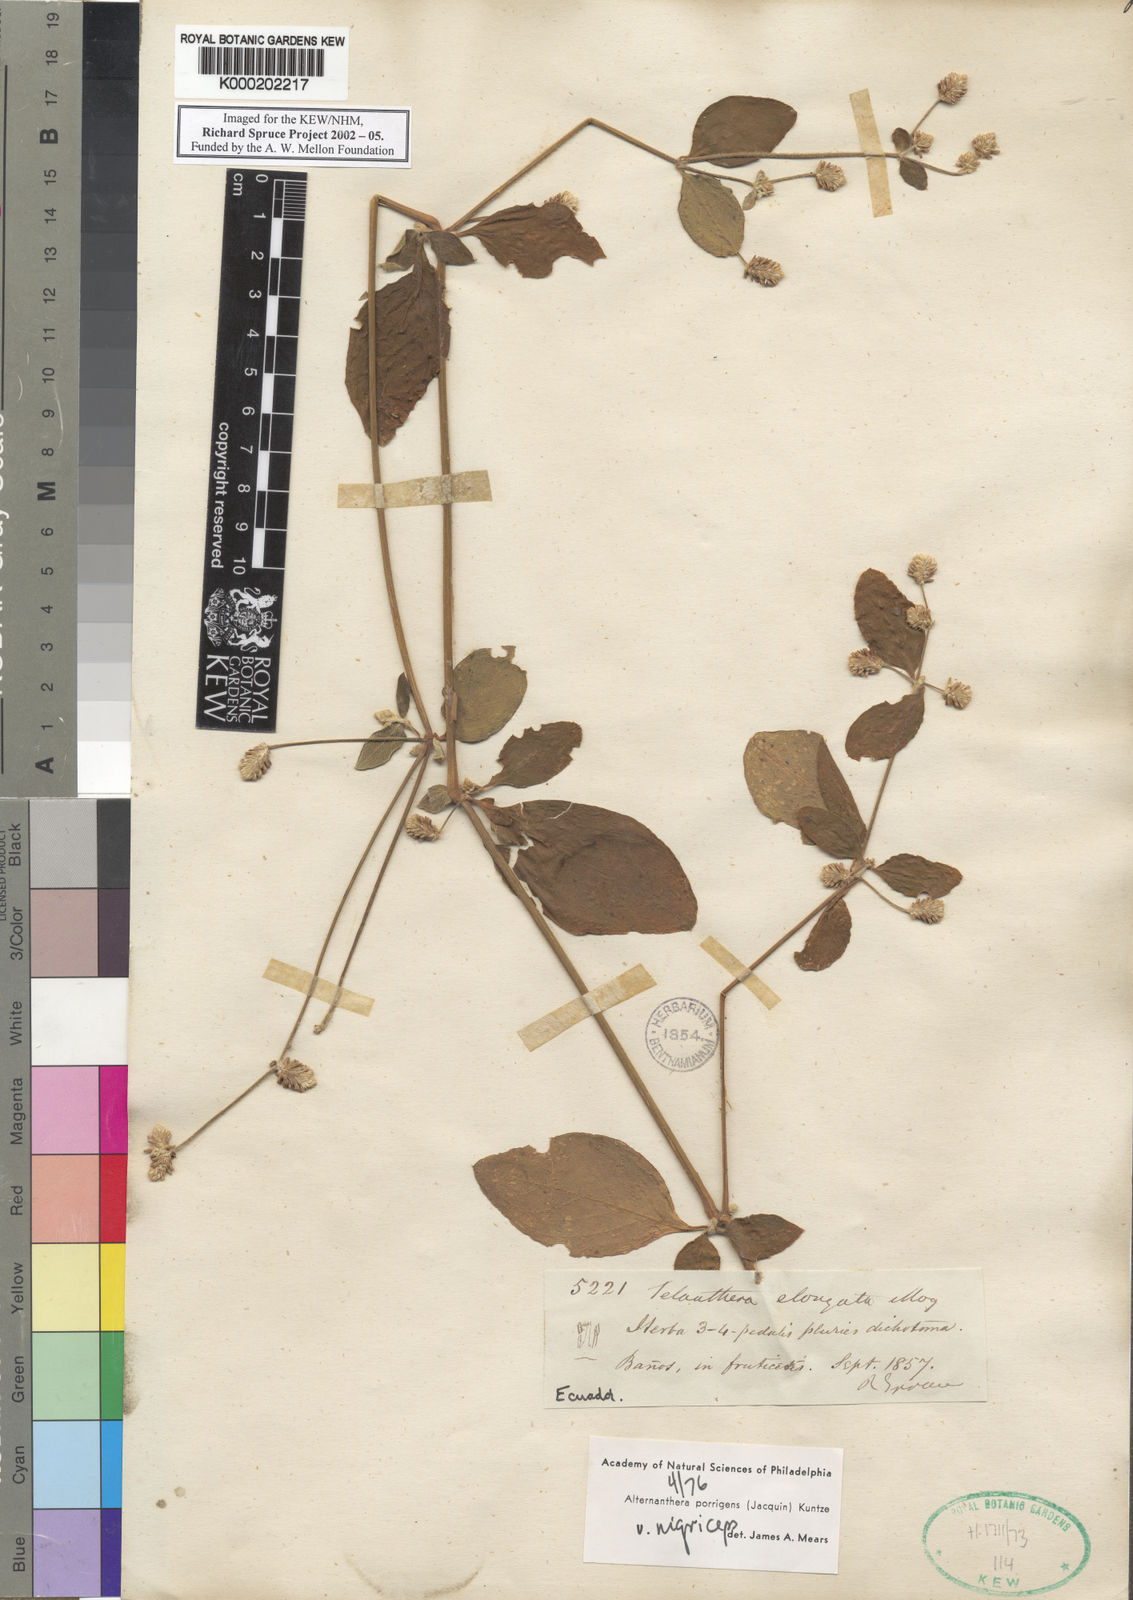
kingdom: Plantae
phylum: Tracheophyta
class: Magnoliopsida
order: Caryophyllales
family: Amaranthaceae
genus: Alternanthera
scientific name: Alternanthera
